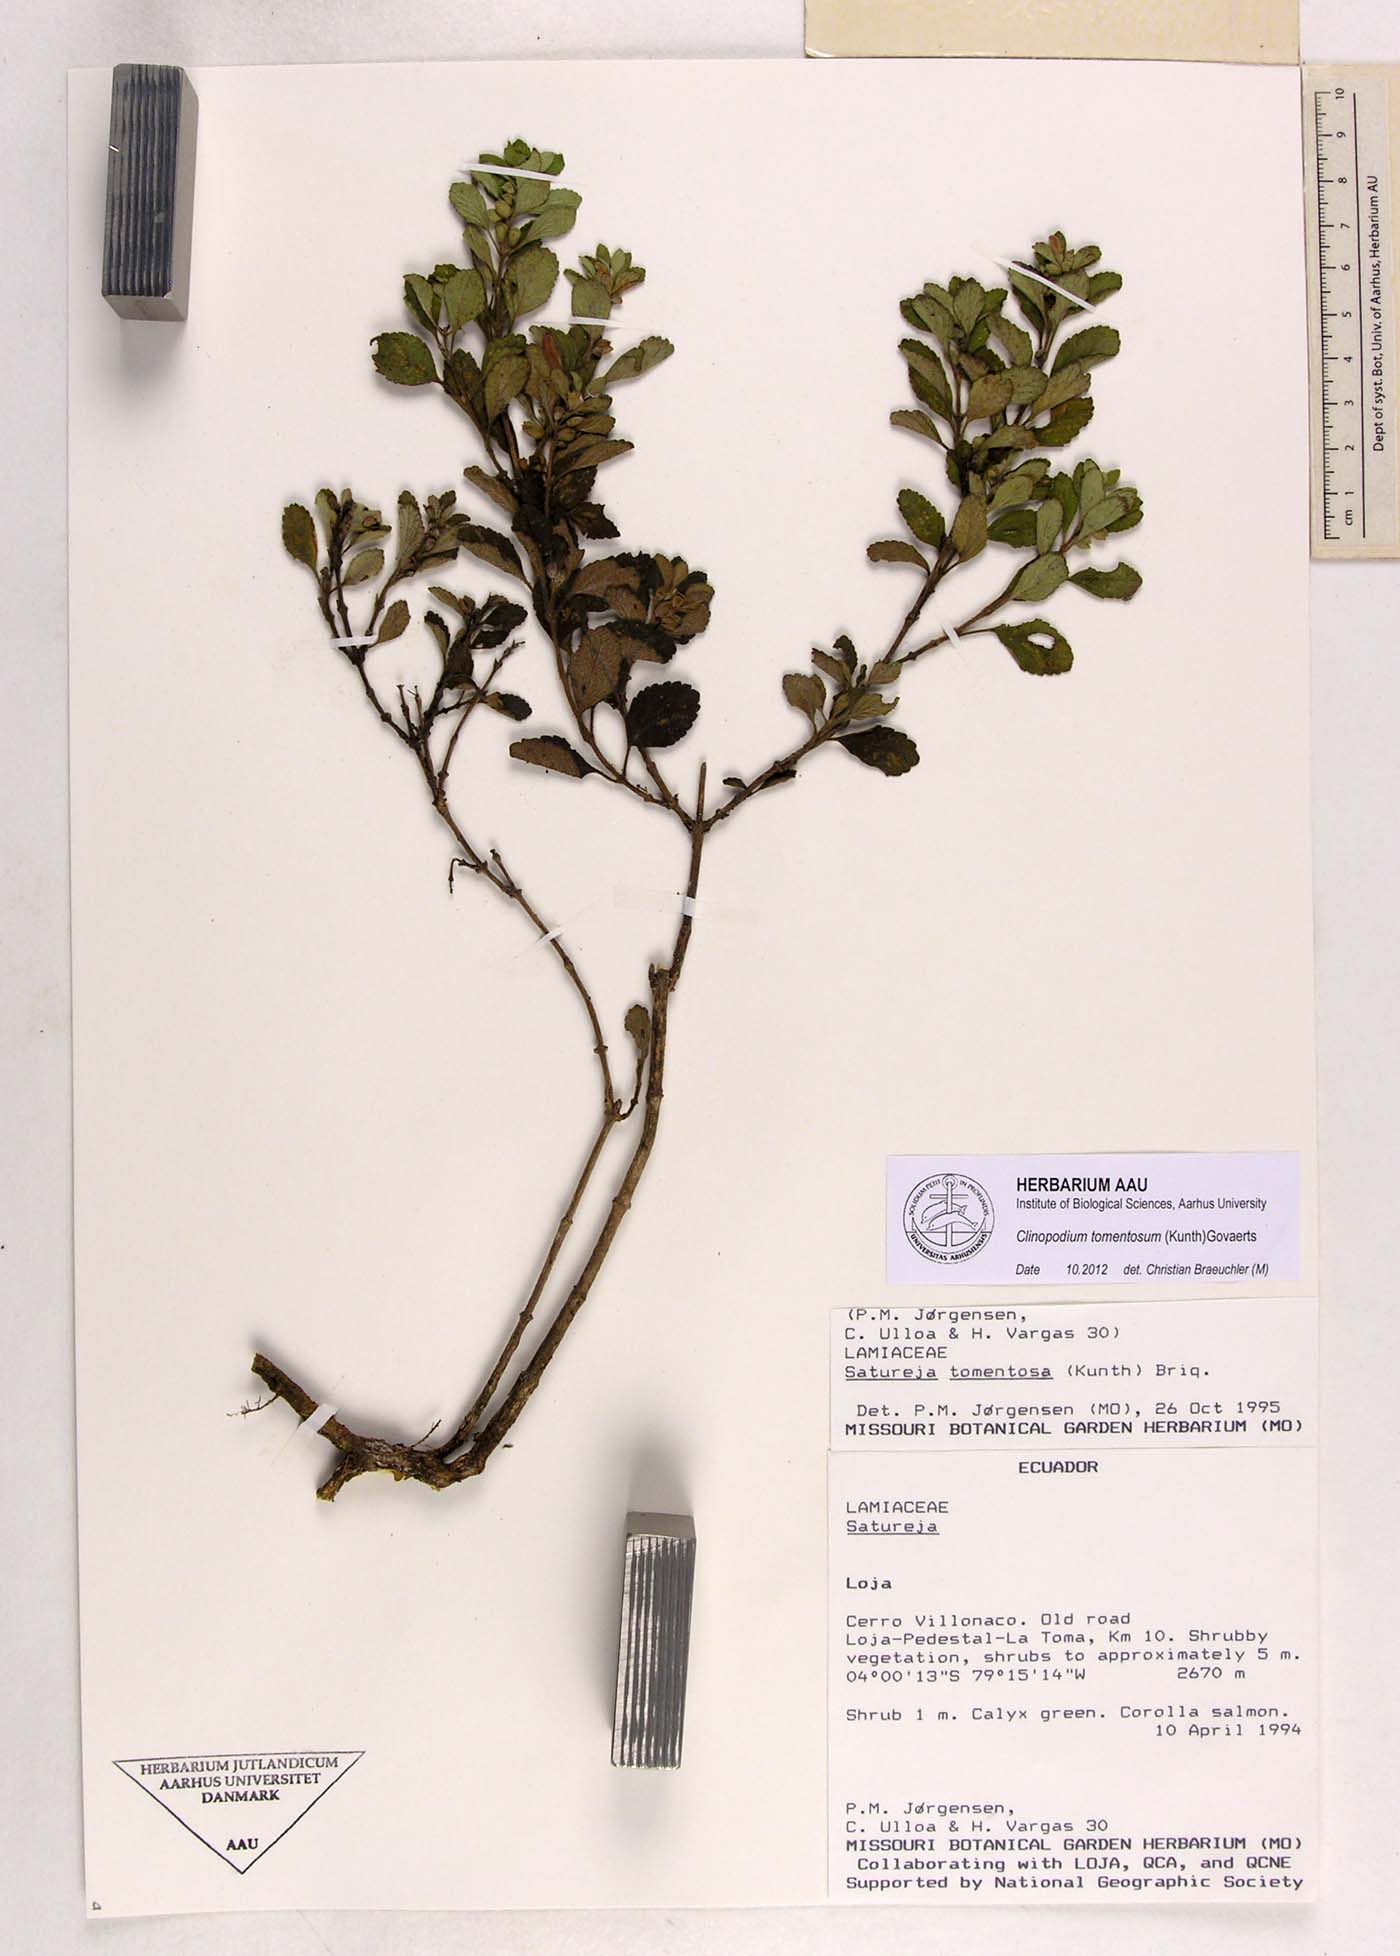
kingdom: Plantae
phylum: Tracheophyta
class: Magnoliopsida
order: Lamiales
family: Lamiaceae
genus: Clinopodium
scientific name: Clinopodium tomentosum
